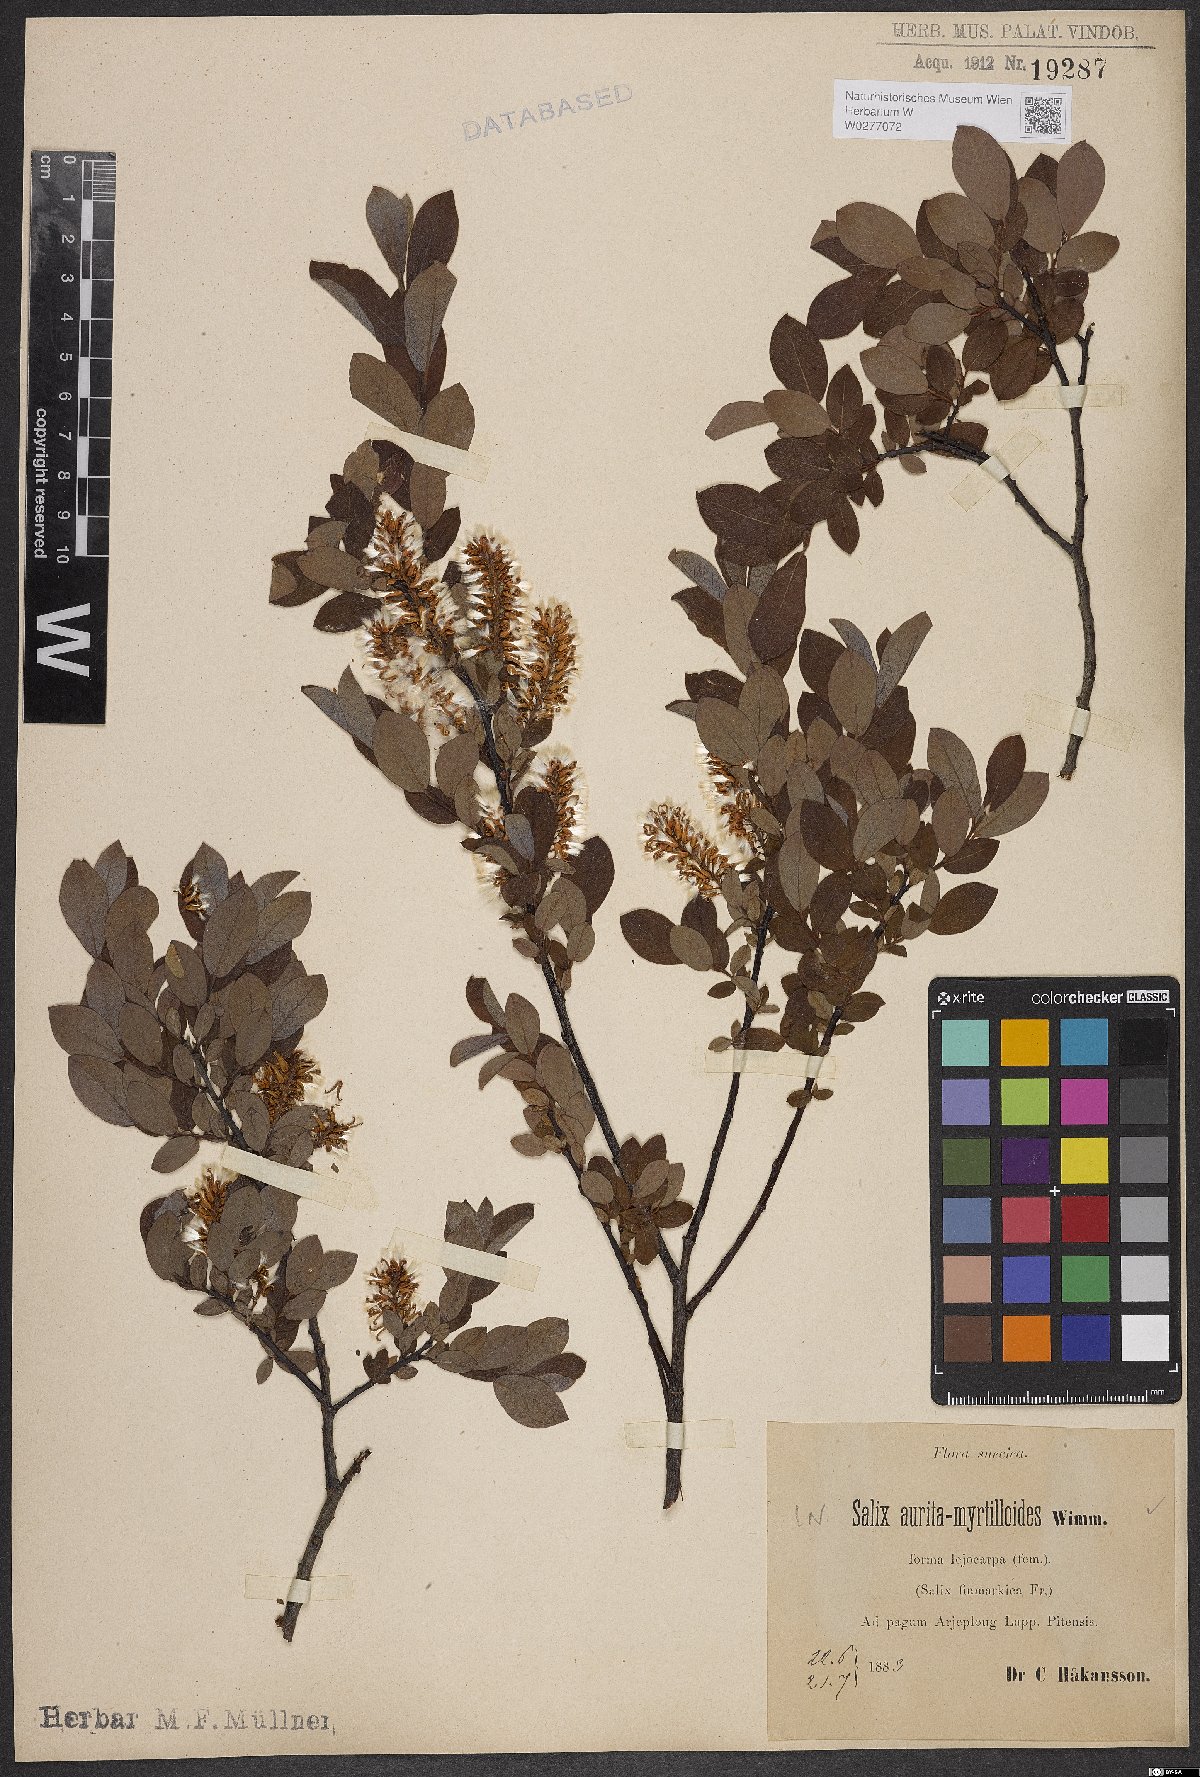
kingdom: Plantae
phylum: Tracheophyta
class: Magnoliopsida
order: Malpighiales
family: Salicaceae
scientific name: Salicaceae
